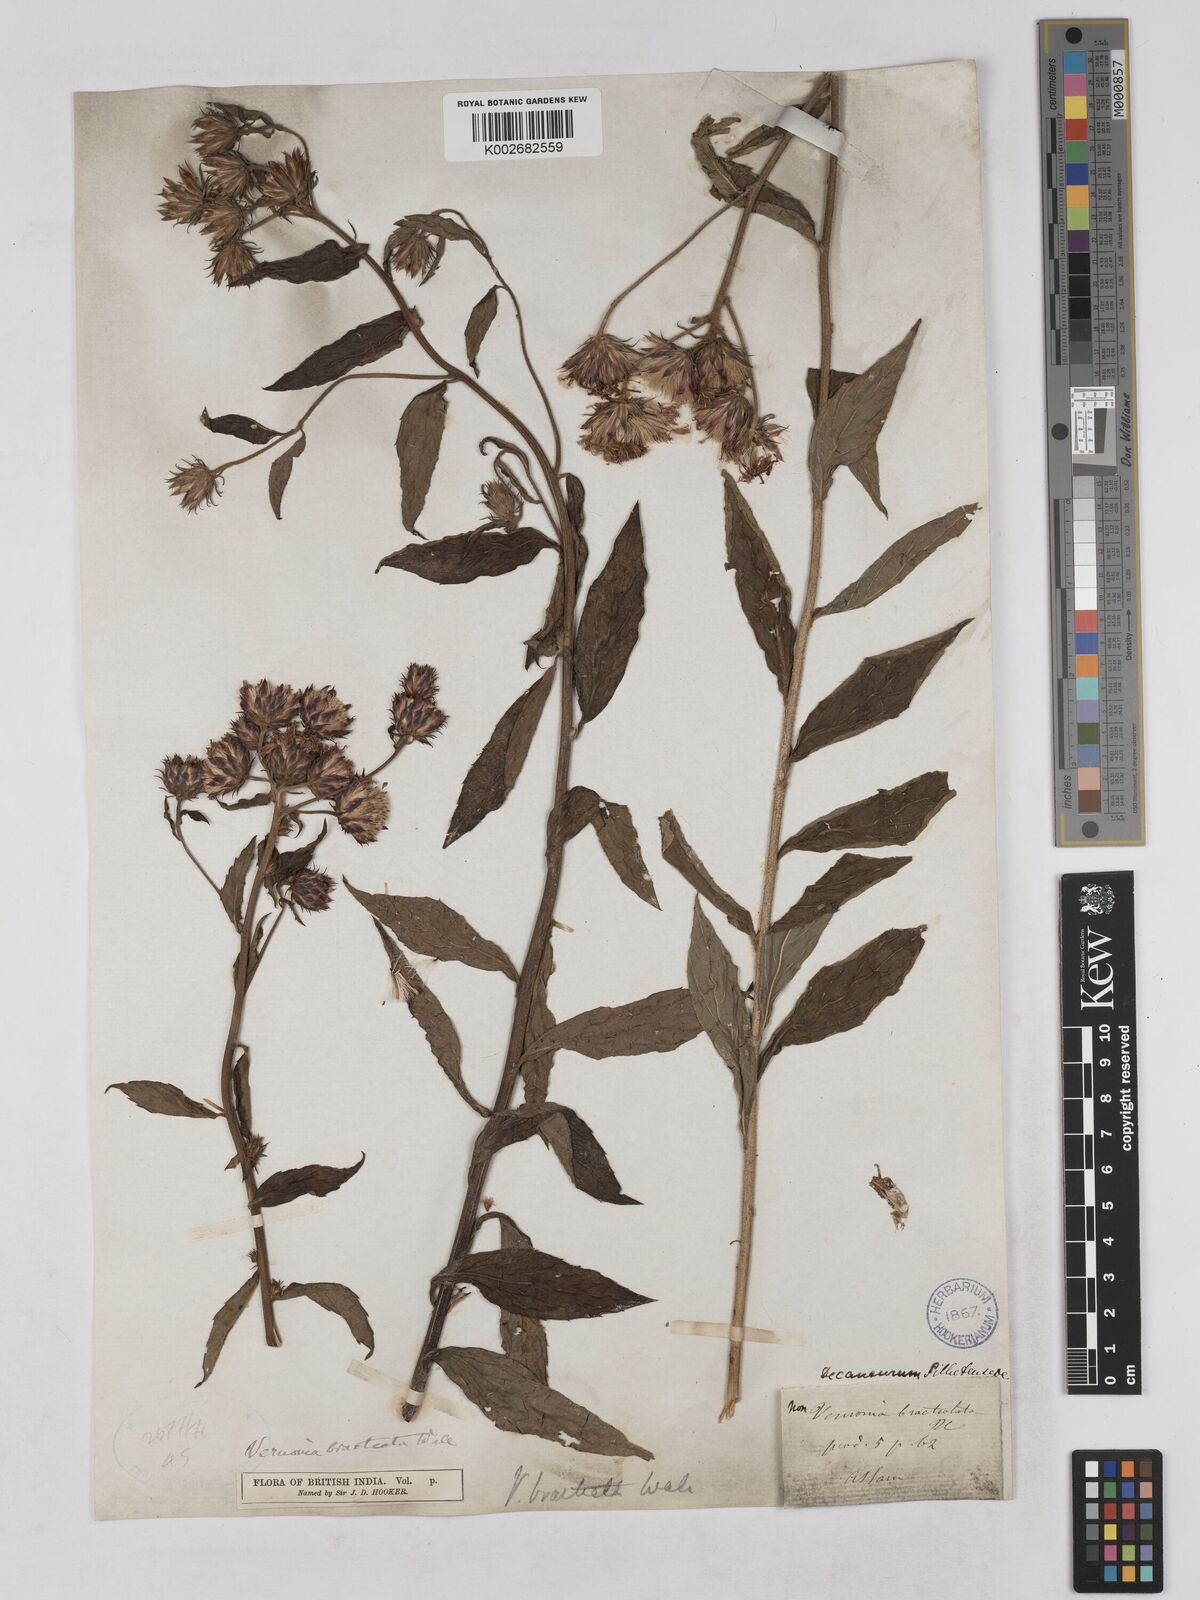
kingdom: Plantae
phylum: Tracheophyta
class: Magnoliopsida
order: Asterales
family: Asteraceae
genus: Acilepis
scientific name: Acilepis silhetensis
